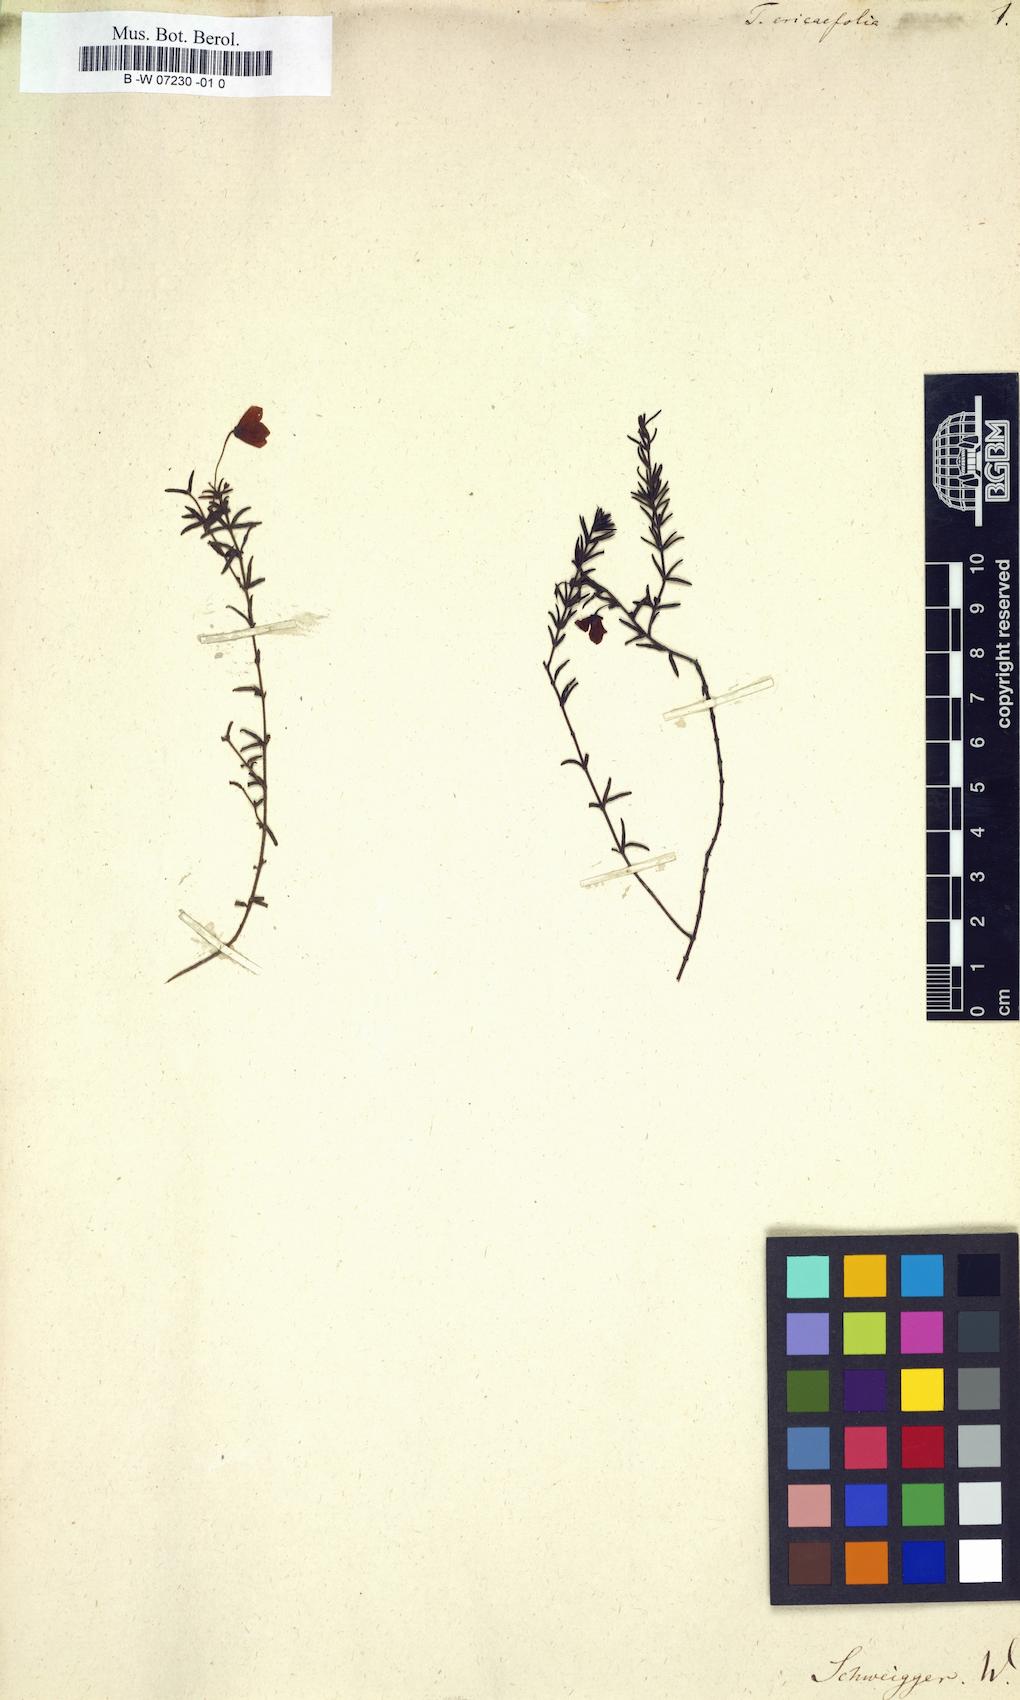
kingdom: Plantae
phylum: Tracheophyta
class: Magnoliopsida
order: Oxalidales
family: Elaeocarpaceae
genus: Tetratheca
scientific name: Tetratheca ericifolia
